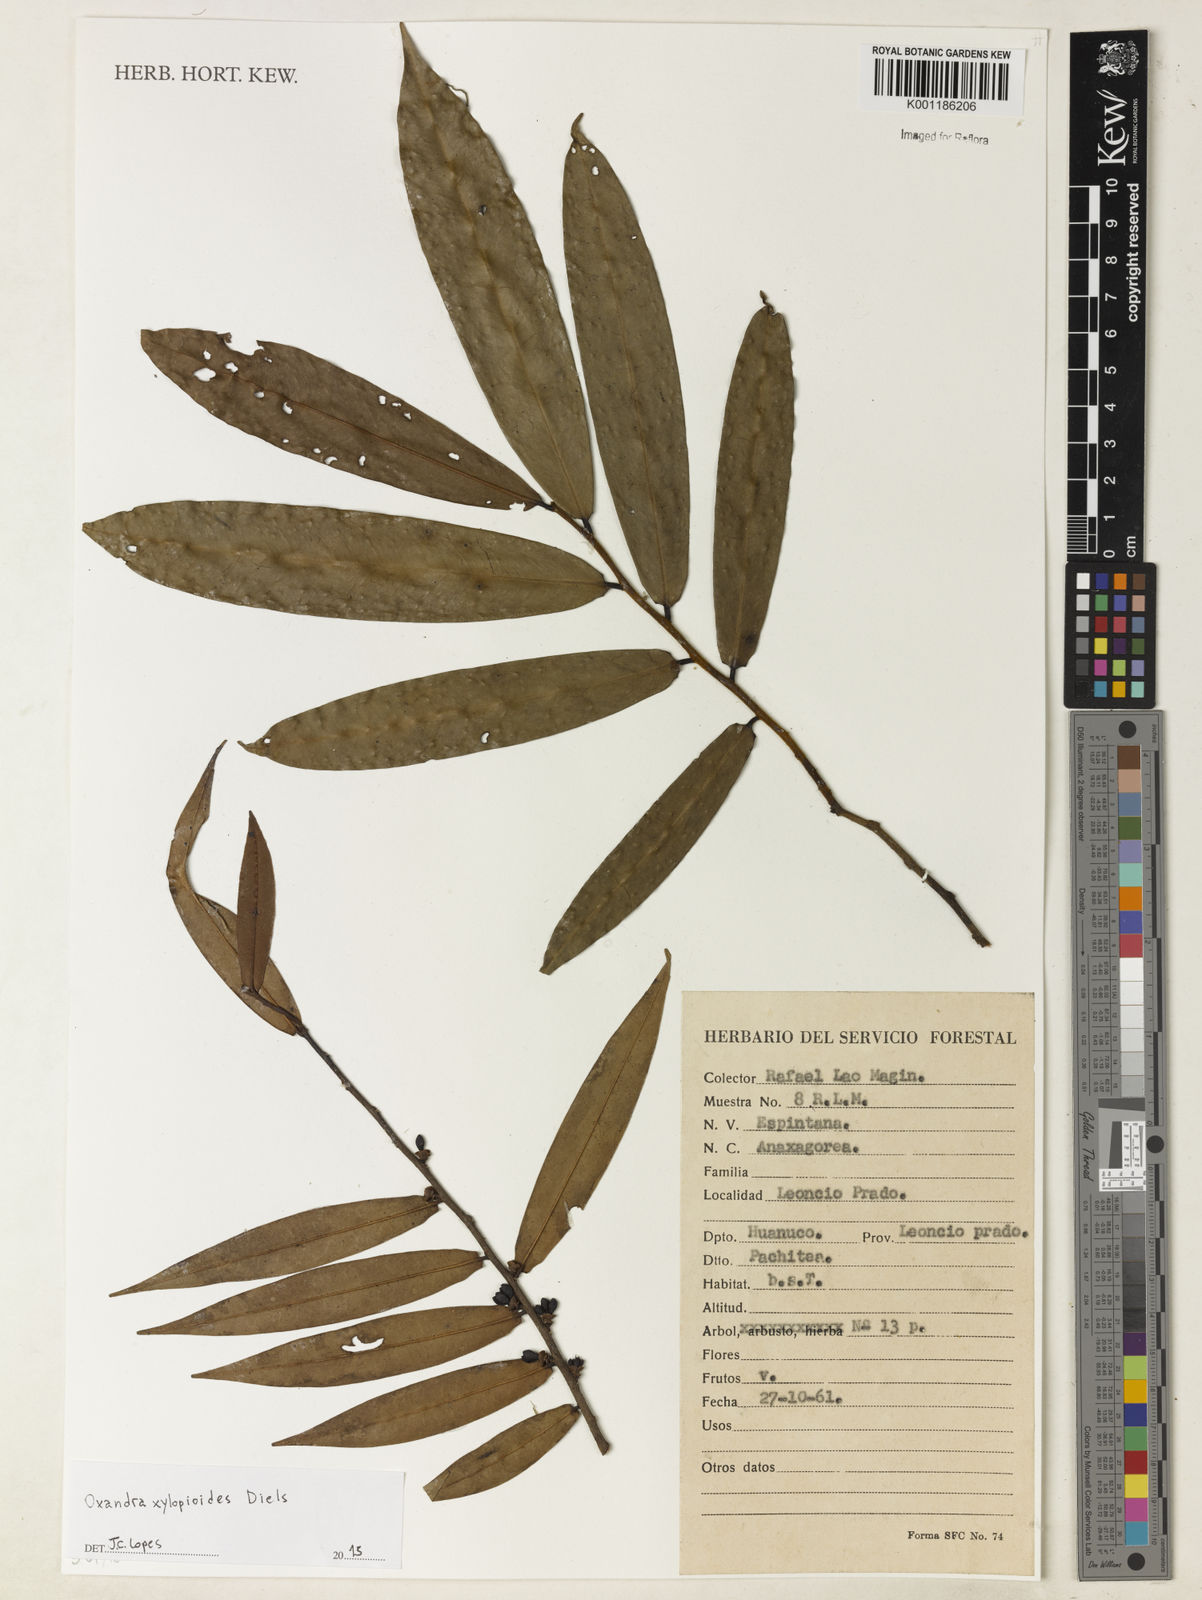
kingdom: Plantae
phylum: Tracheophyta
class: Magnoliopsida
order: Magnoliales
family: Annonaceae
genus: Oxandra
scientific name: Oxandra xylopioides
